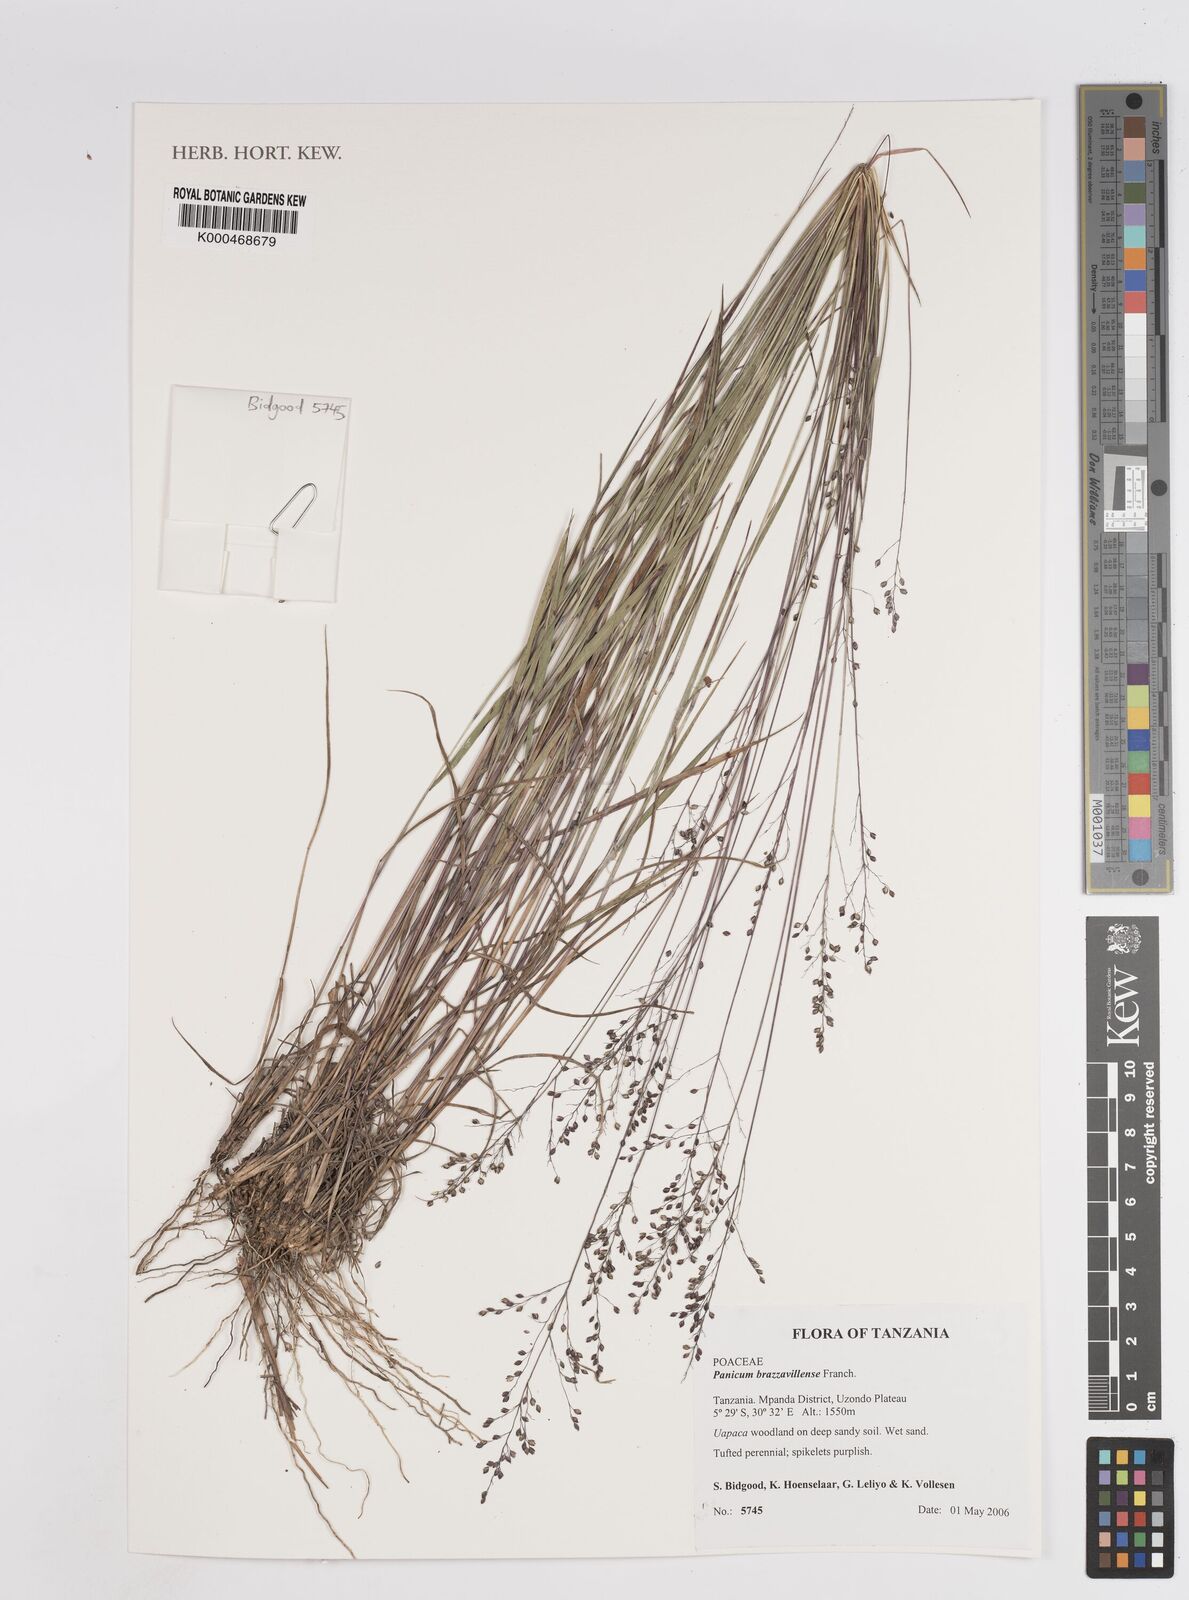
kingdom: Plantae
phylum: Tracheophyta
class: Liliopsida
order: Poales
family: Poaceae
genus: Trichanthecium
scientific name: Trichanthecium brazzavillense
